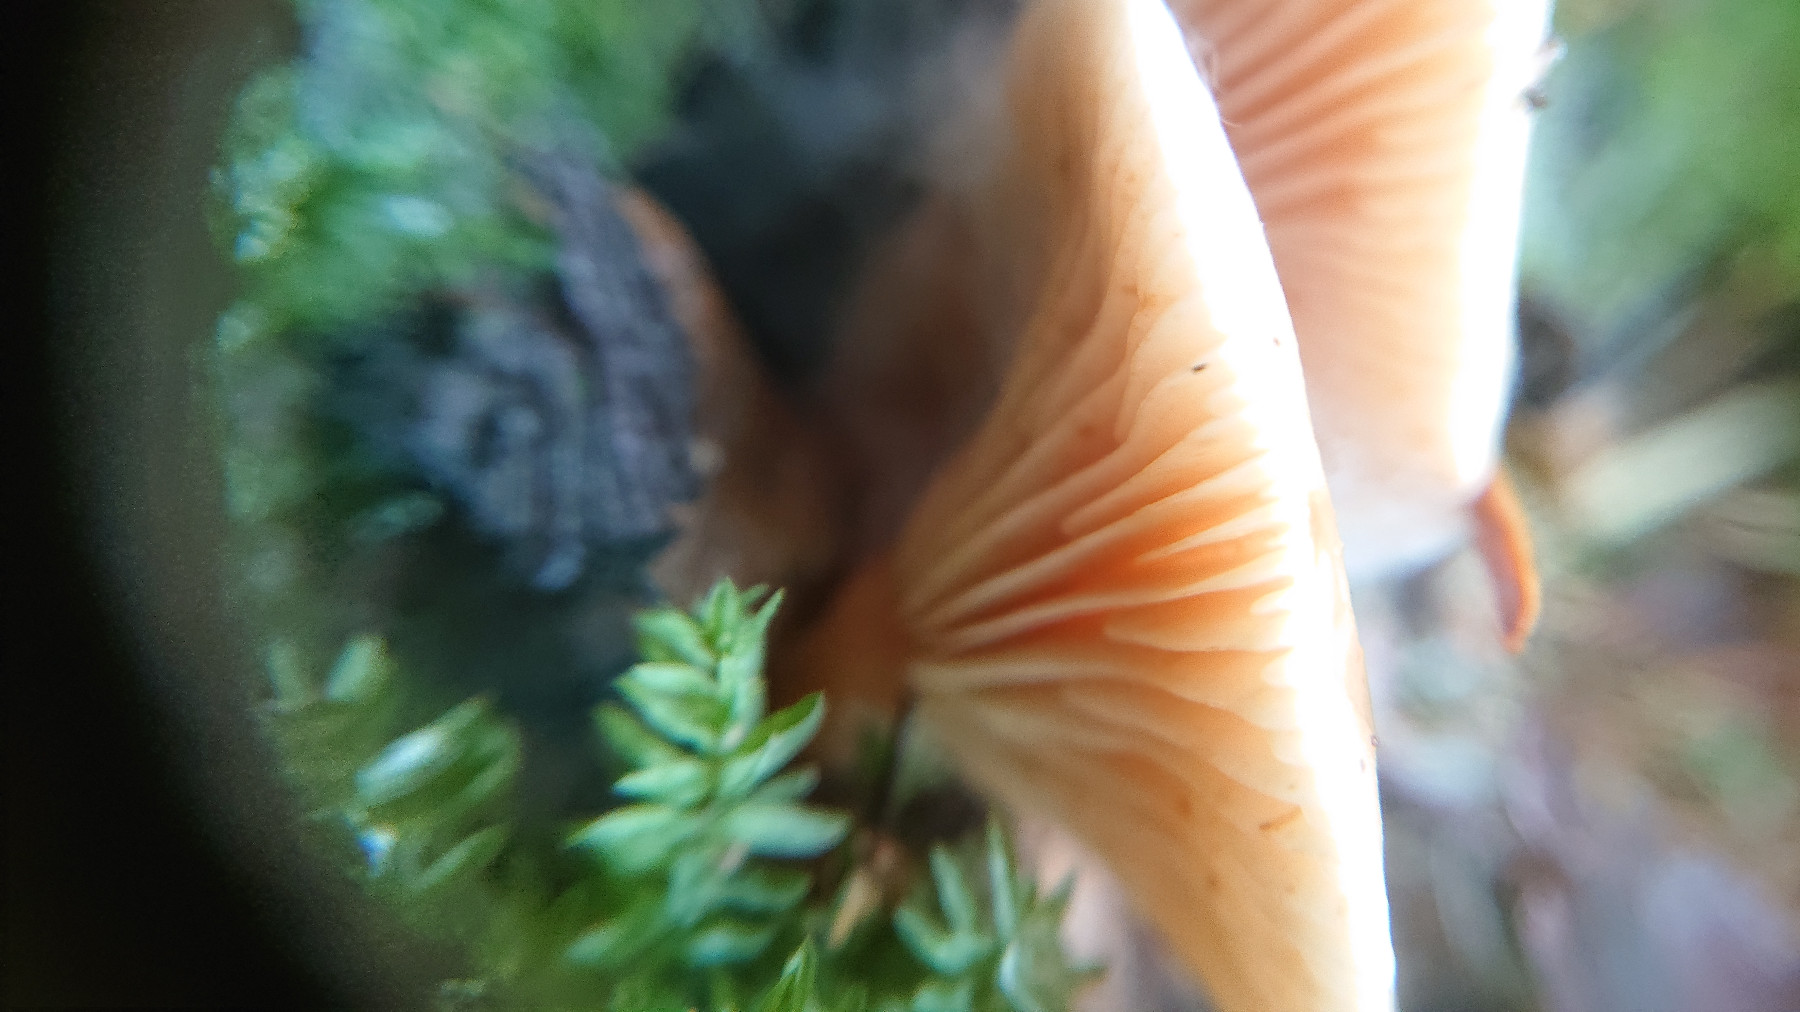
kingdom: Fungi
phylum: Basidiomycota
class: Agaricomycetes
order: Agaricales
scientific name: Agaricales
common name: champignonordenen
